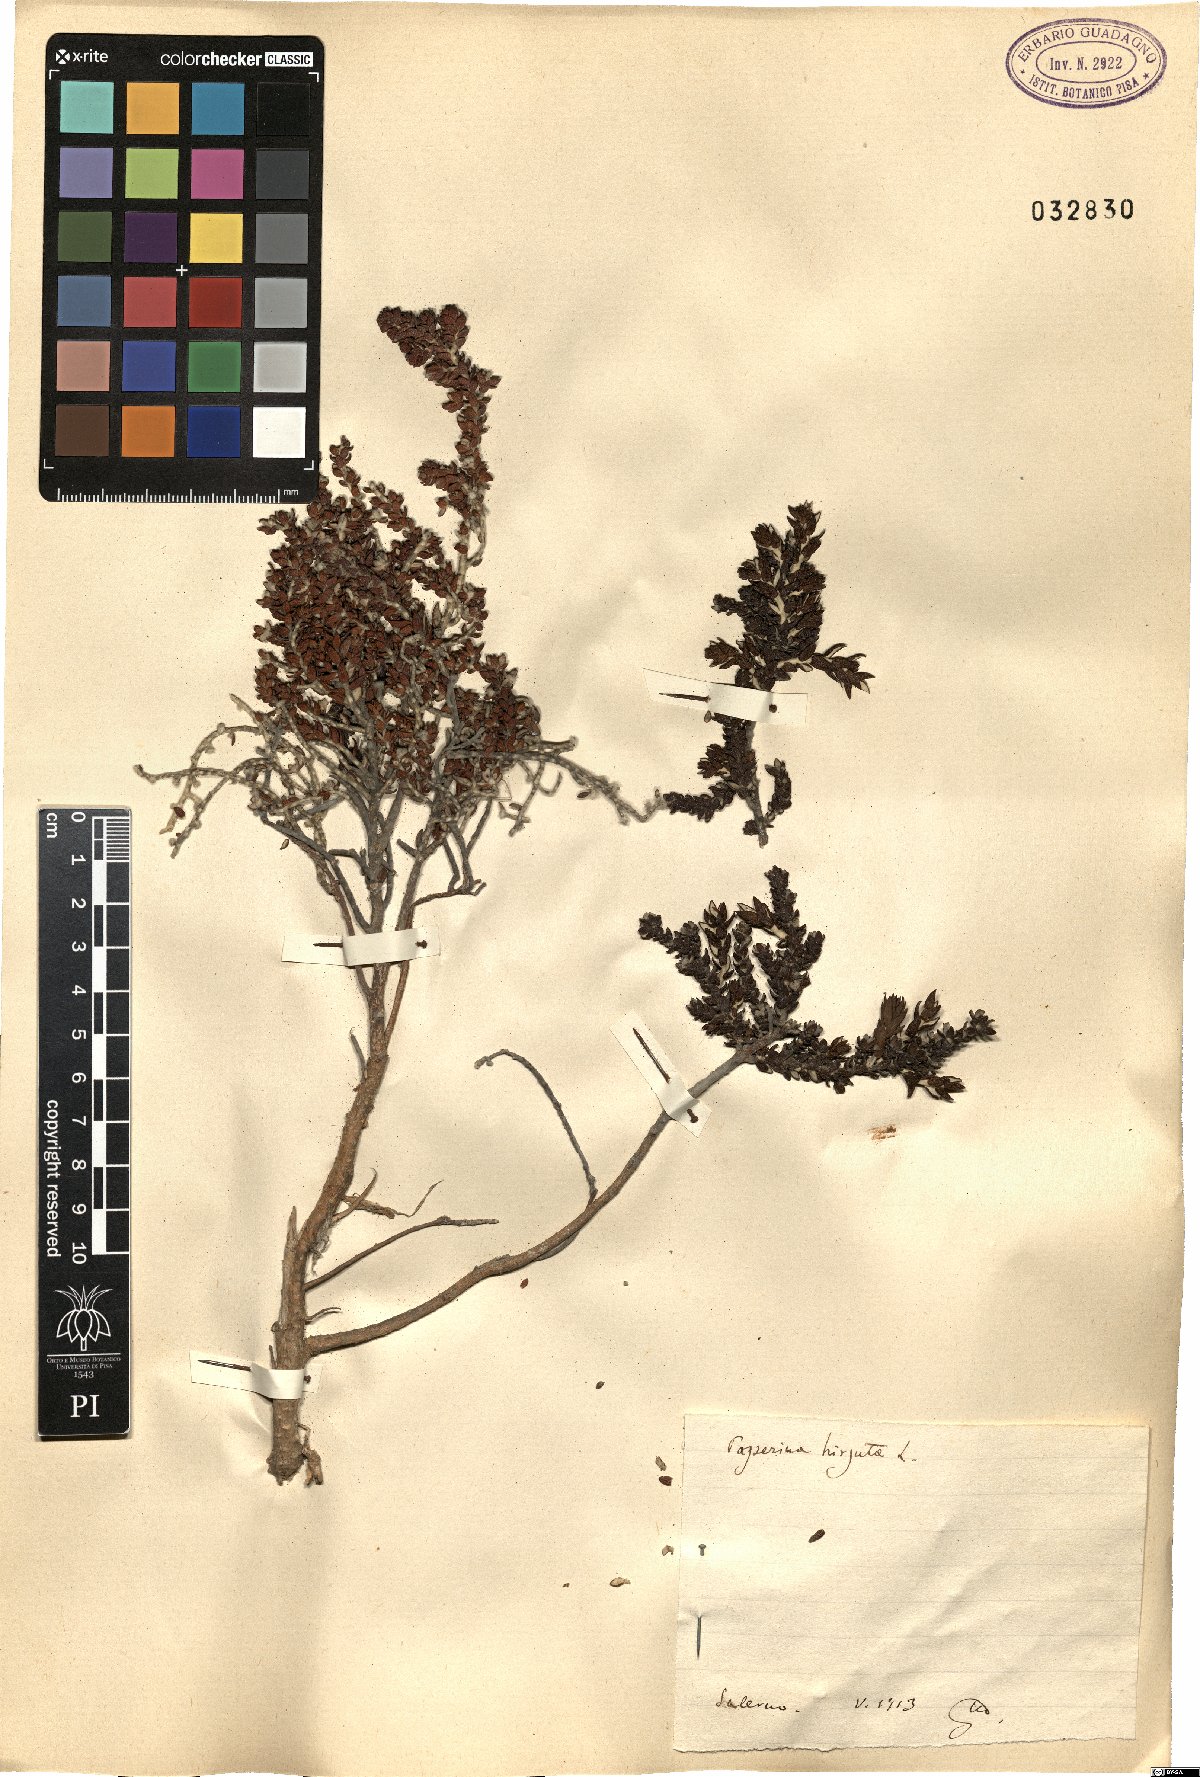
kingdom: Plantae
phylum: Tracheophyta
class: Magnoliopsida
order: Malvales
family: Thymelaeaceae
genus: Thymelaea
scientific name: Thymelaea hirsuta
